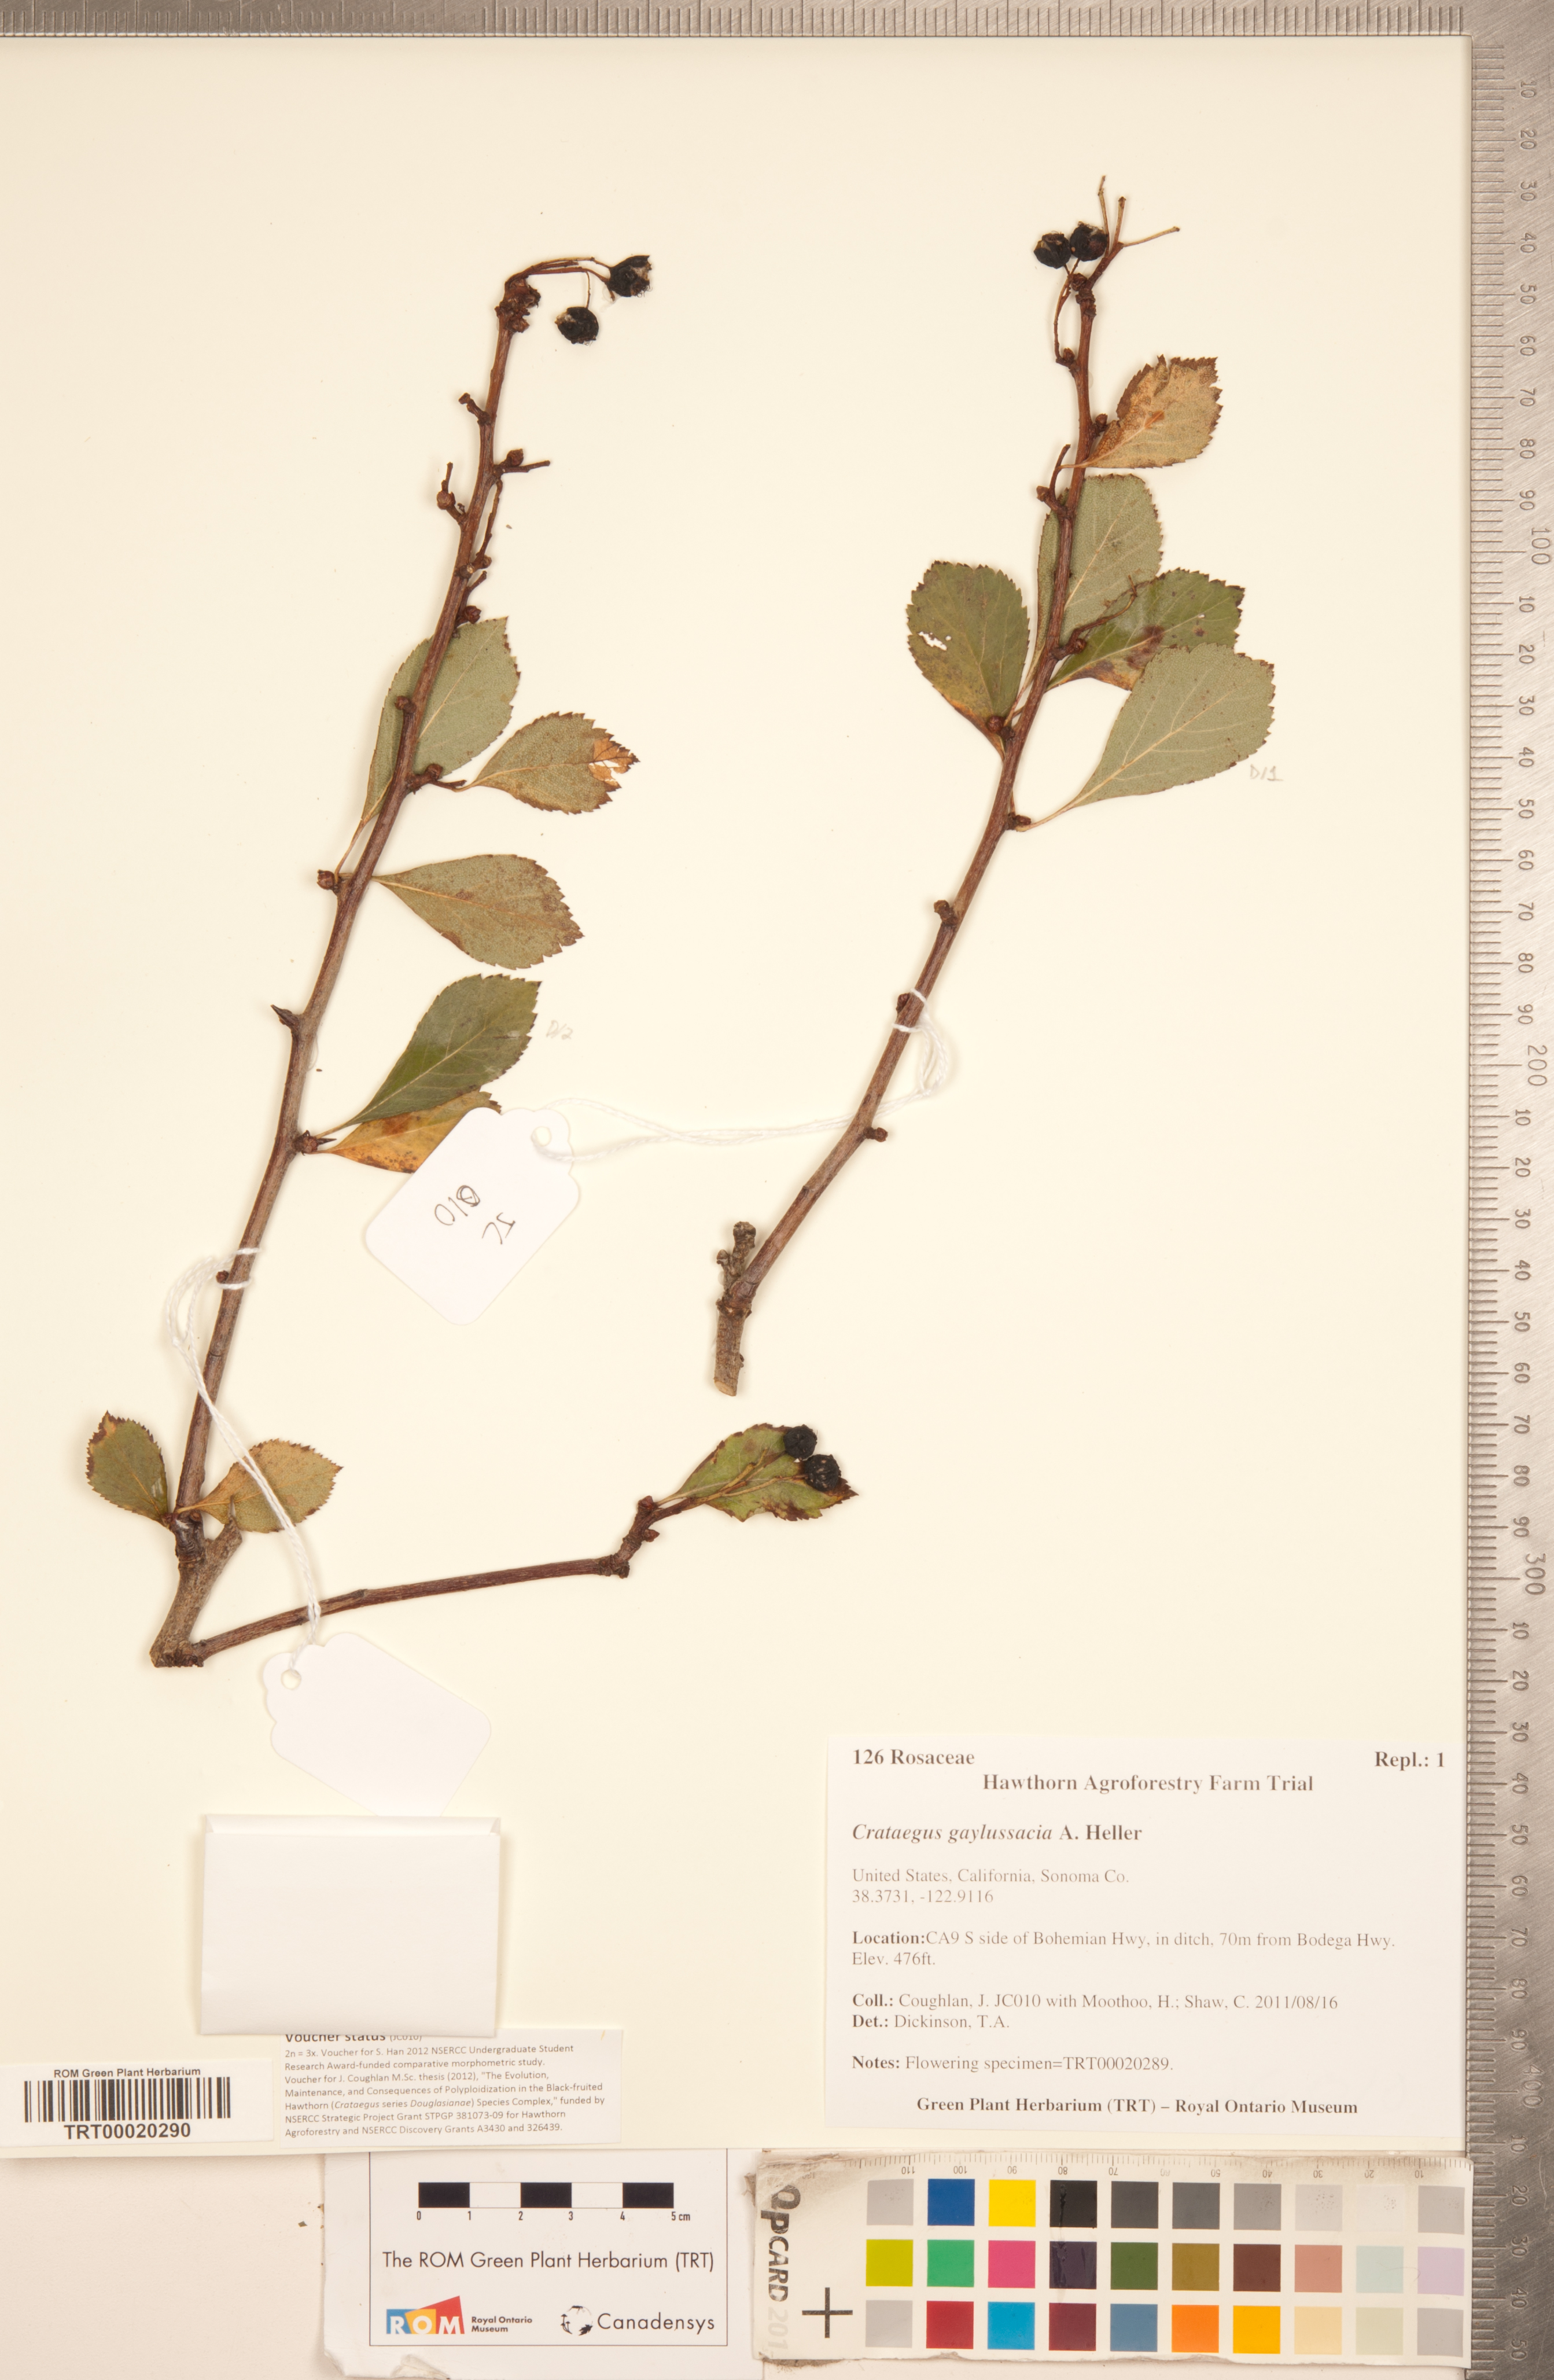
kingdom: Plantae
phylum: Tracheophyta
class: Magnoliopsida
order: Rosales
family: Rosaceae
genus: Crataegus
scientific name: Crataegus gaylussacia
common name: Huckleberry hawthorn
